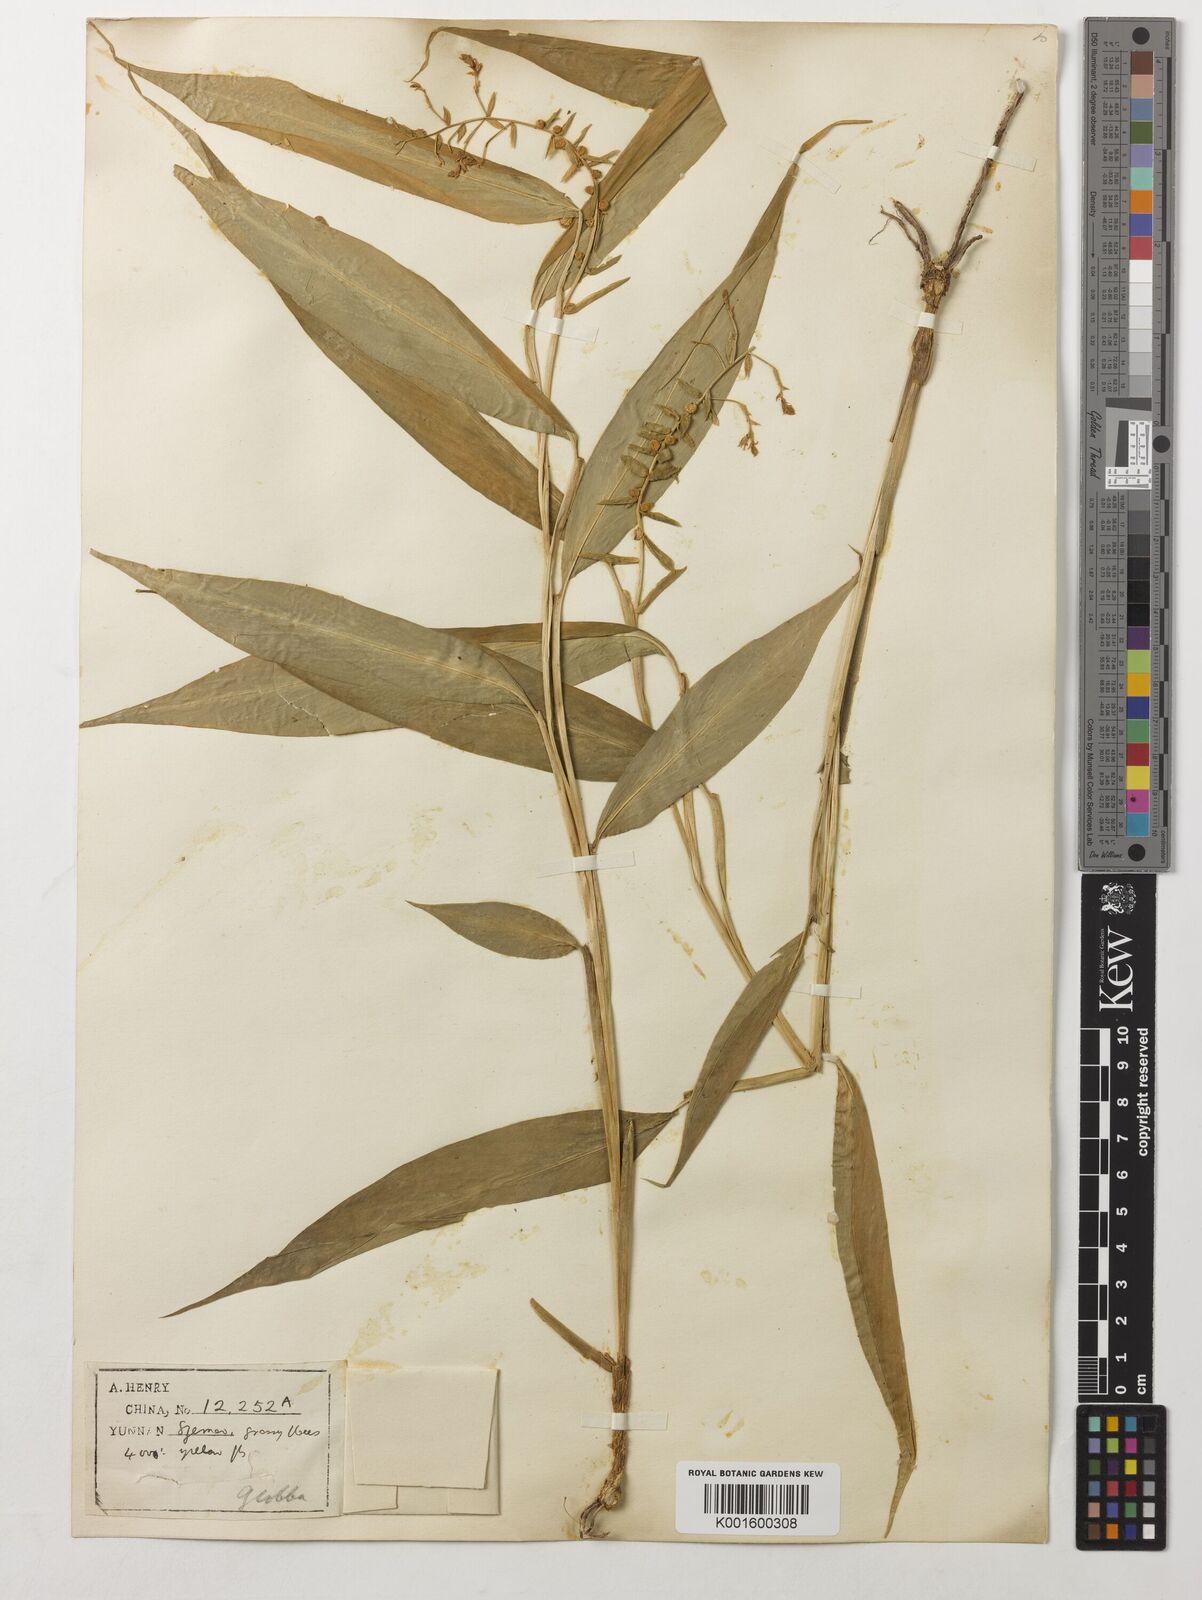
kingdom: Plantae
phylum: Tracheophyta
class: Liliopsida
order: Zingiberales
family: Zingiberaceae
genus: Globba
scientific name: Globba
